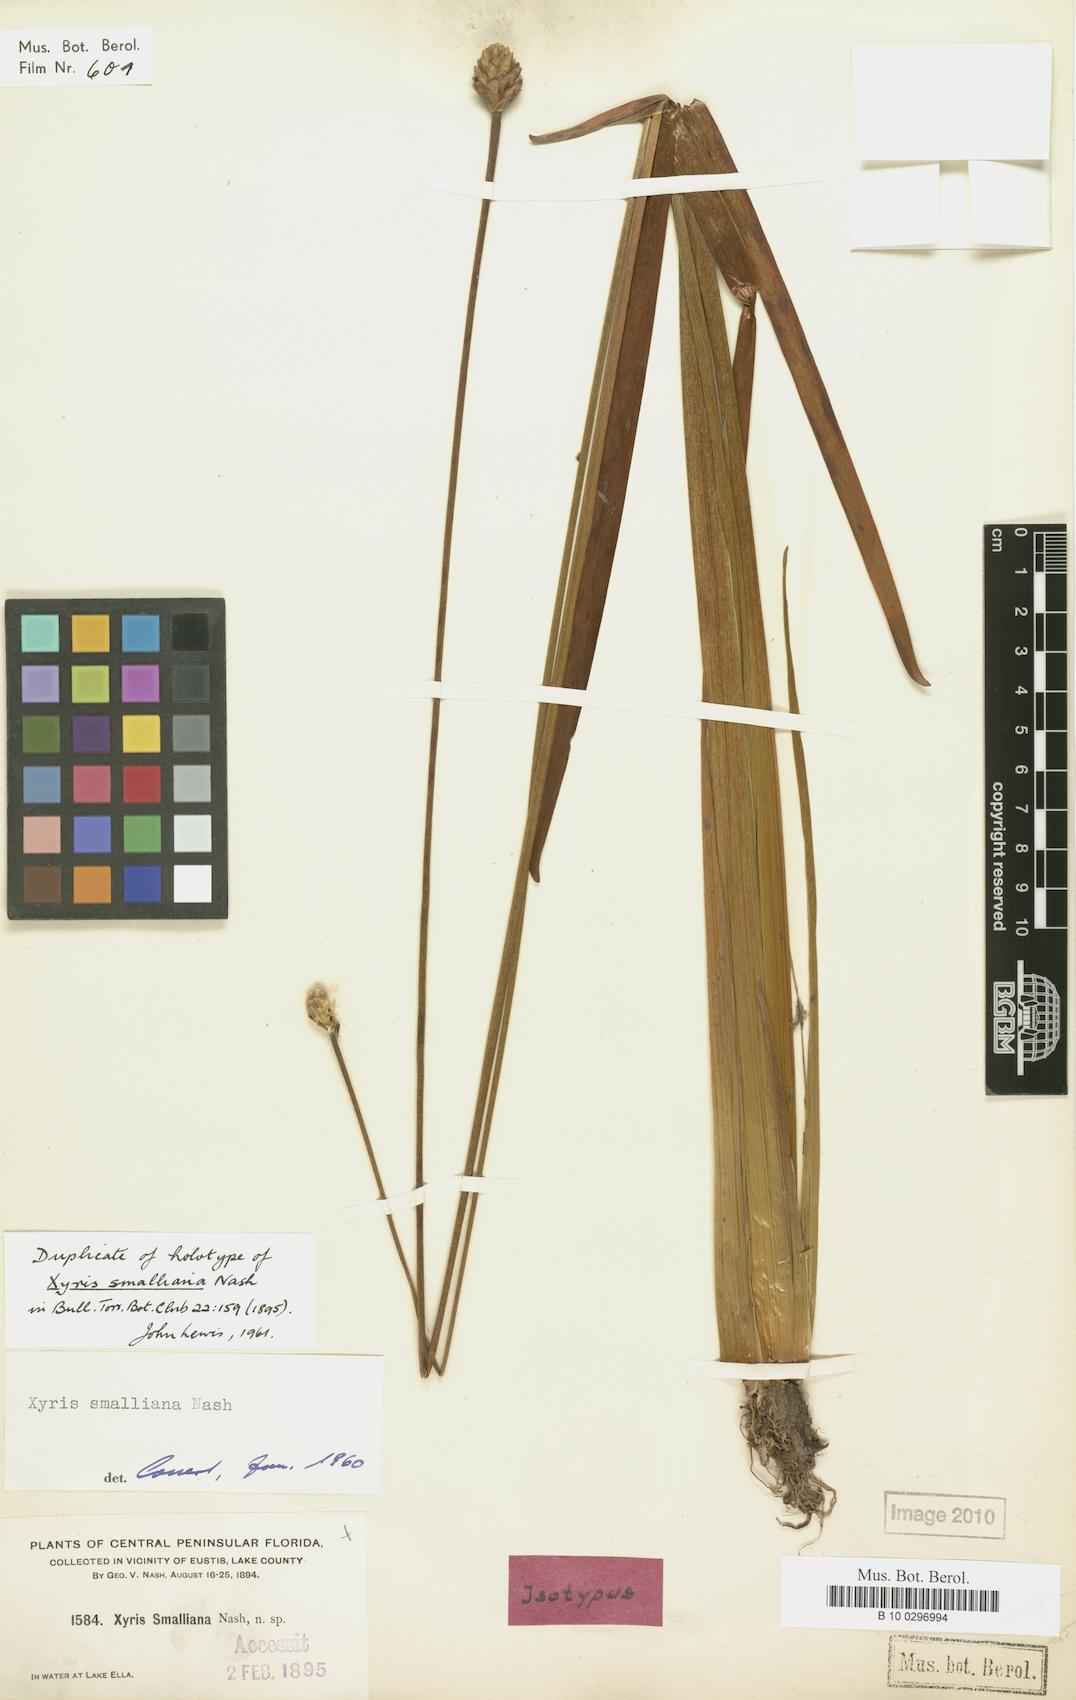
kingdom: Plantae
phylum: Tracheophyta
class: Liliopsida
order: Poales
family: Xyridaceae
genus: Xyris
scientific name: Xyris smalliana
